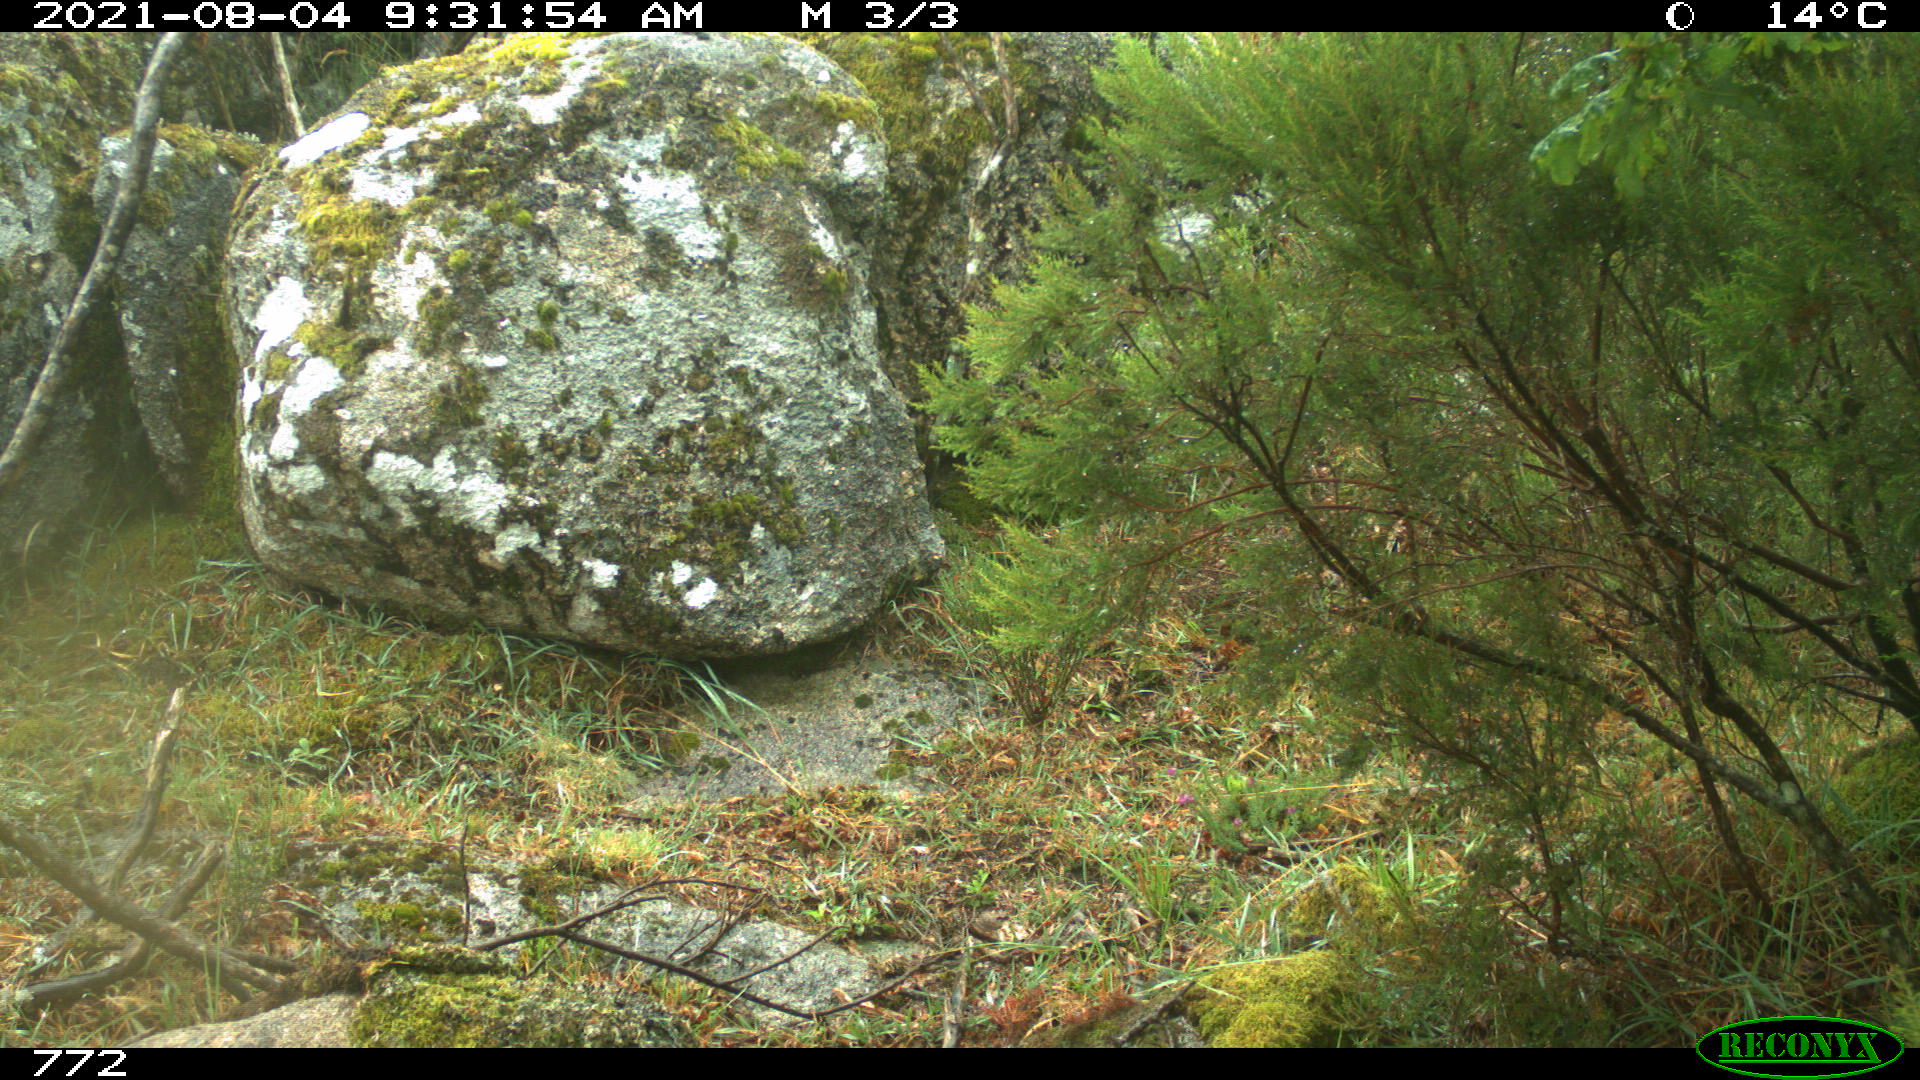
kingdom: Animalia
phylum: Chordata
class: Mammalia
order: Artiodactyla
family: Cervidae
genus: Capreolus
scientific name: Capreolus capreolus
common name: Western roe deer
